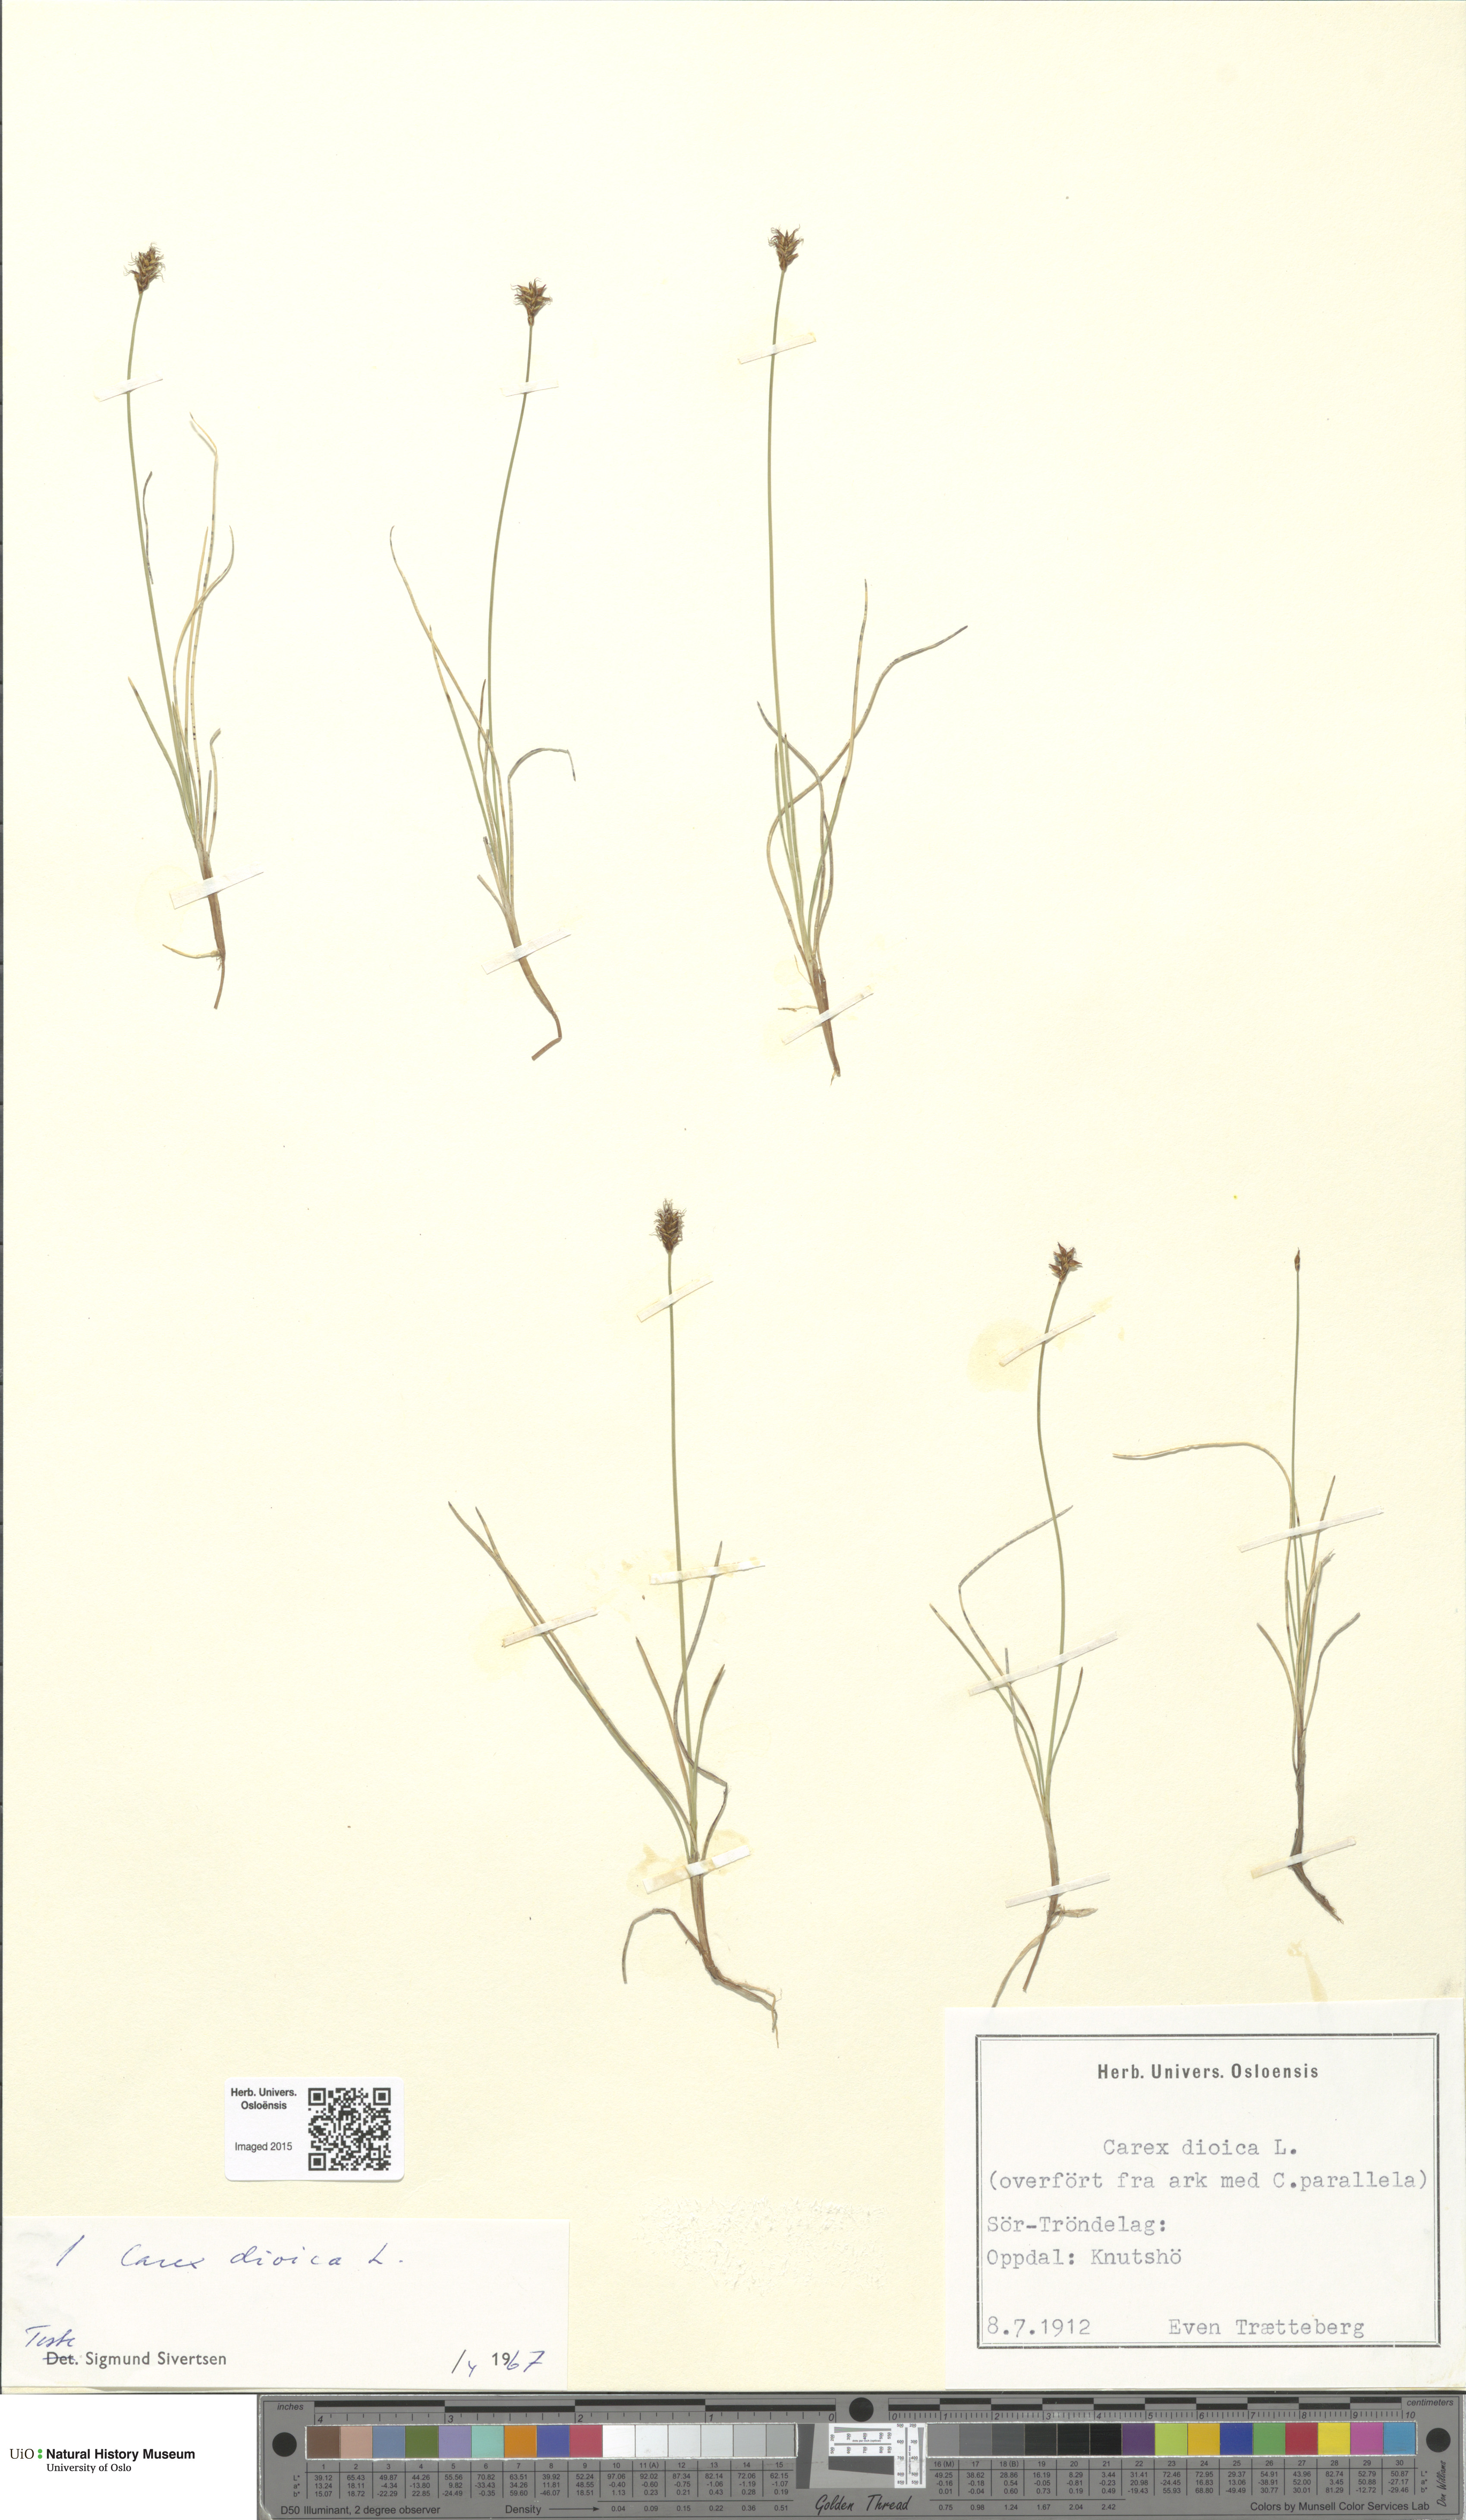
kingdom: Plantae
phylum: Tracheophyta
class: Liliopsida
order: Poales
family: Cyperaceae
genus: Carex
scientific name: Carex dioica
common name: Dioecious sedge
